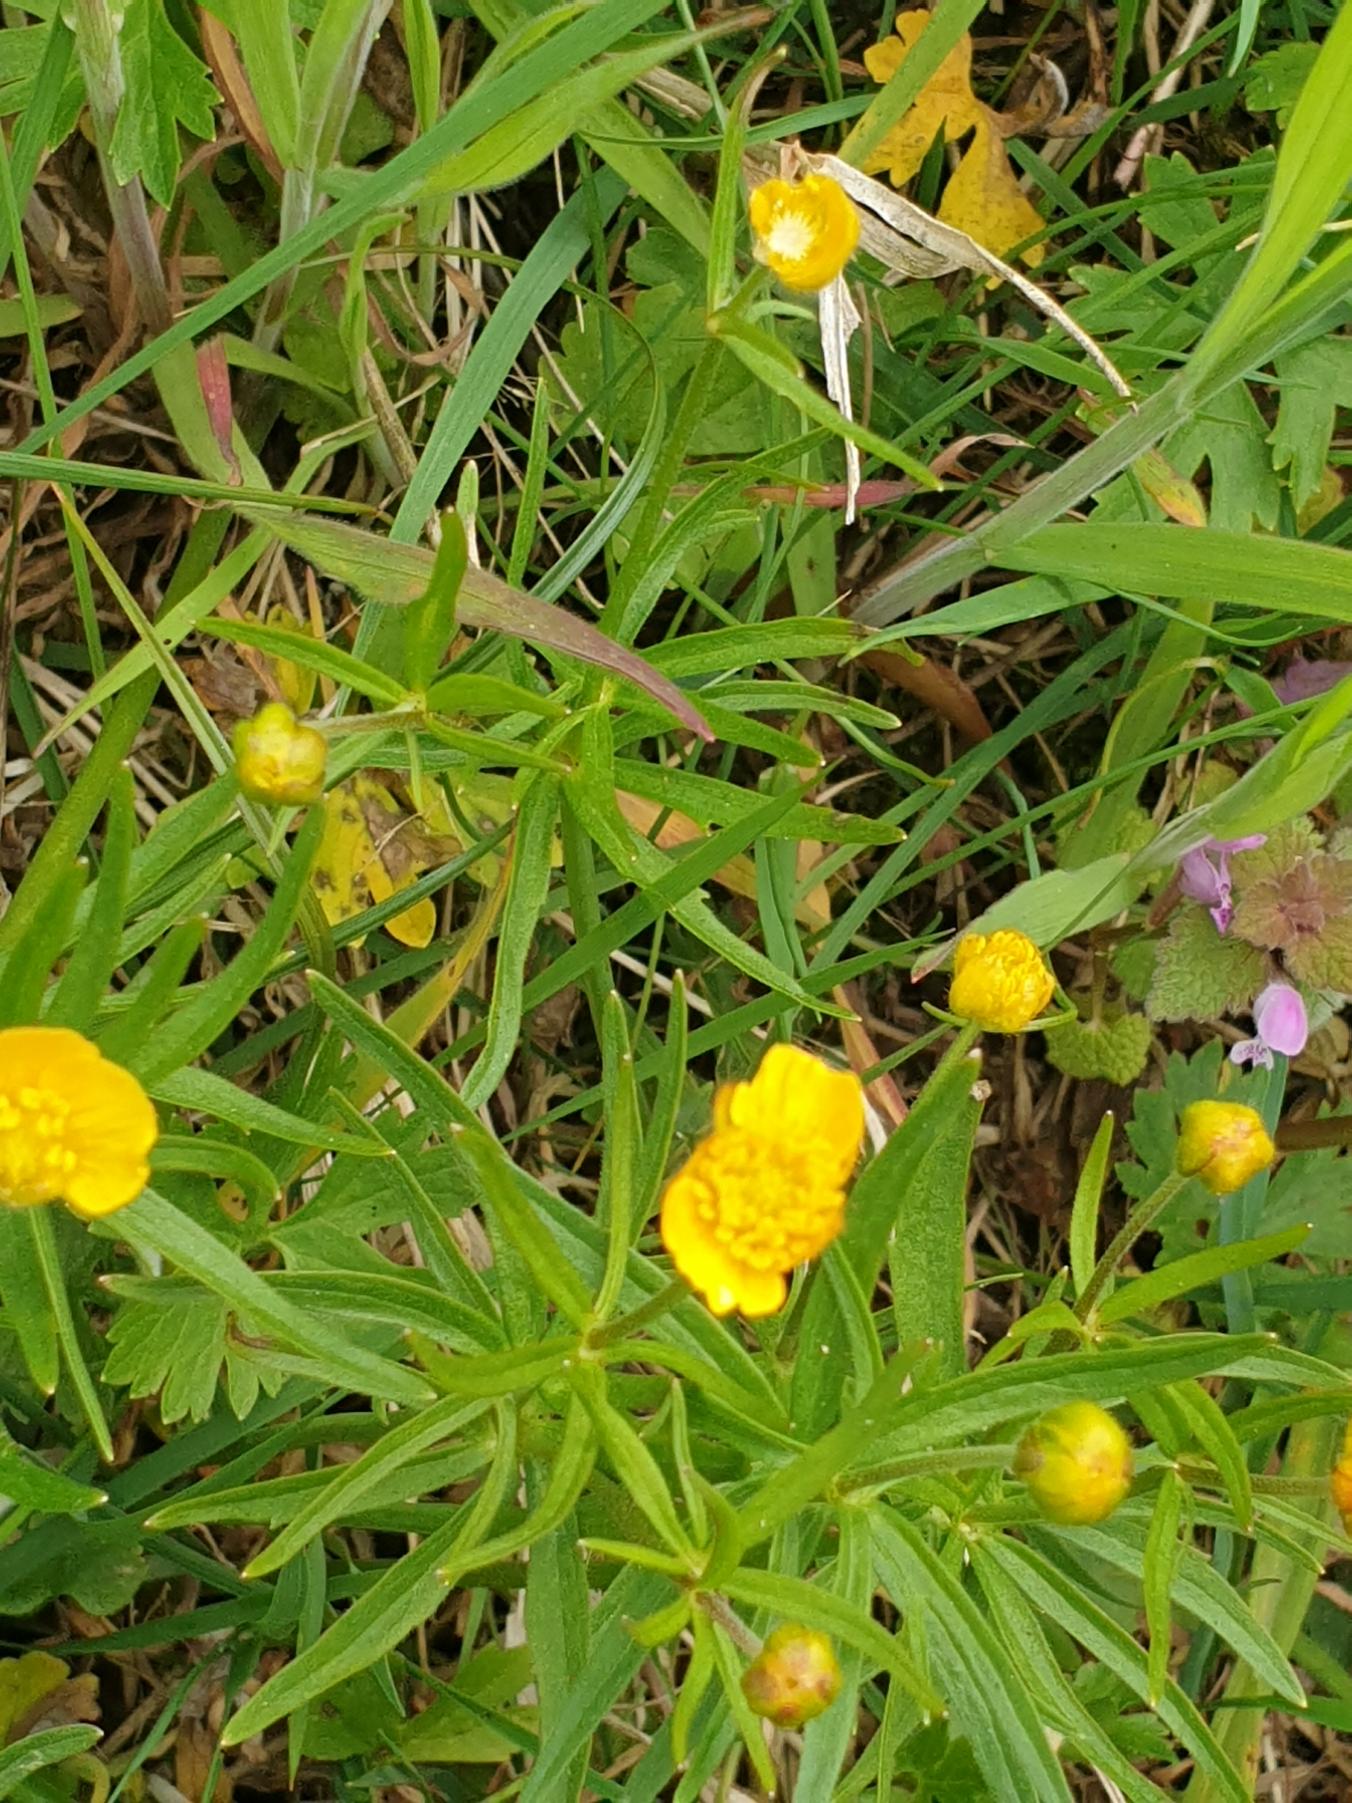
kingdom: Plantae
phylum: Tracheophyta
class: Magnoliopsida
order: Ranunculales
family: Ranunculaceae
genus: Ranunculus
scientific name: Ranunculus auricomus
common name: Nyrebladet ranunkel
